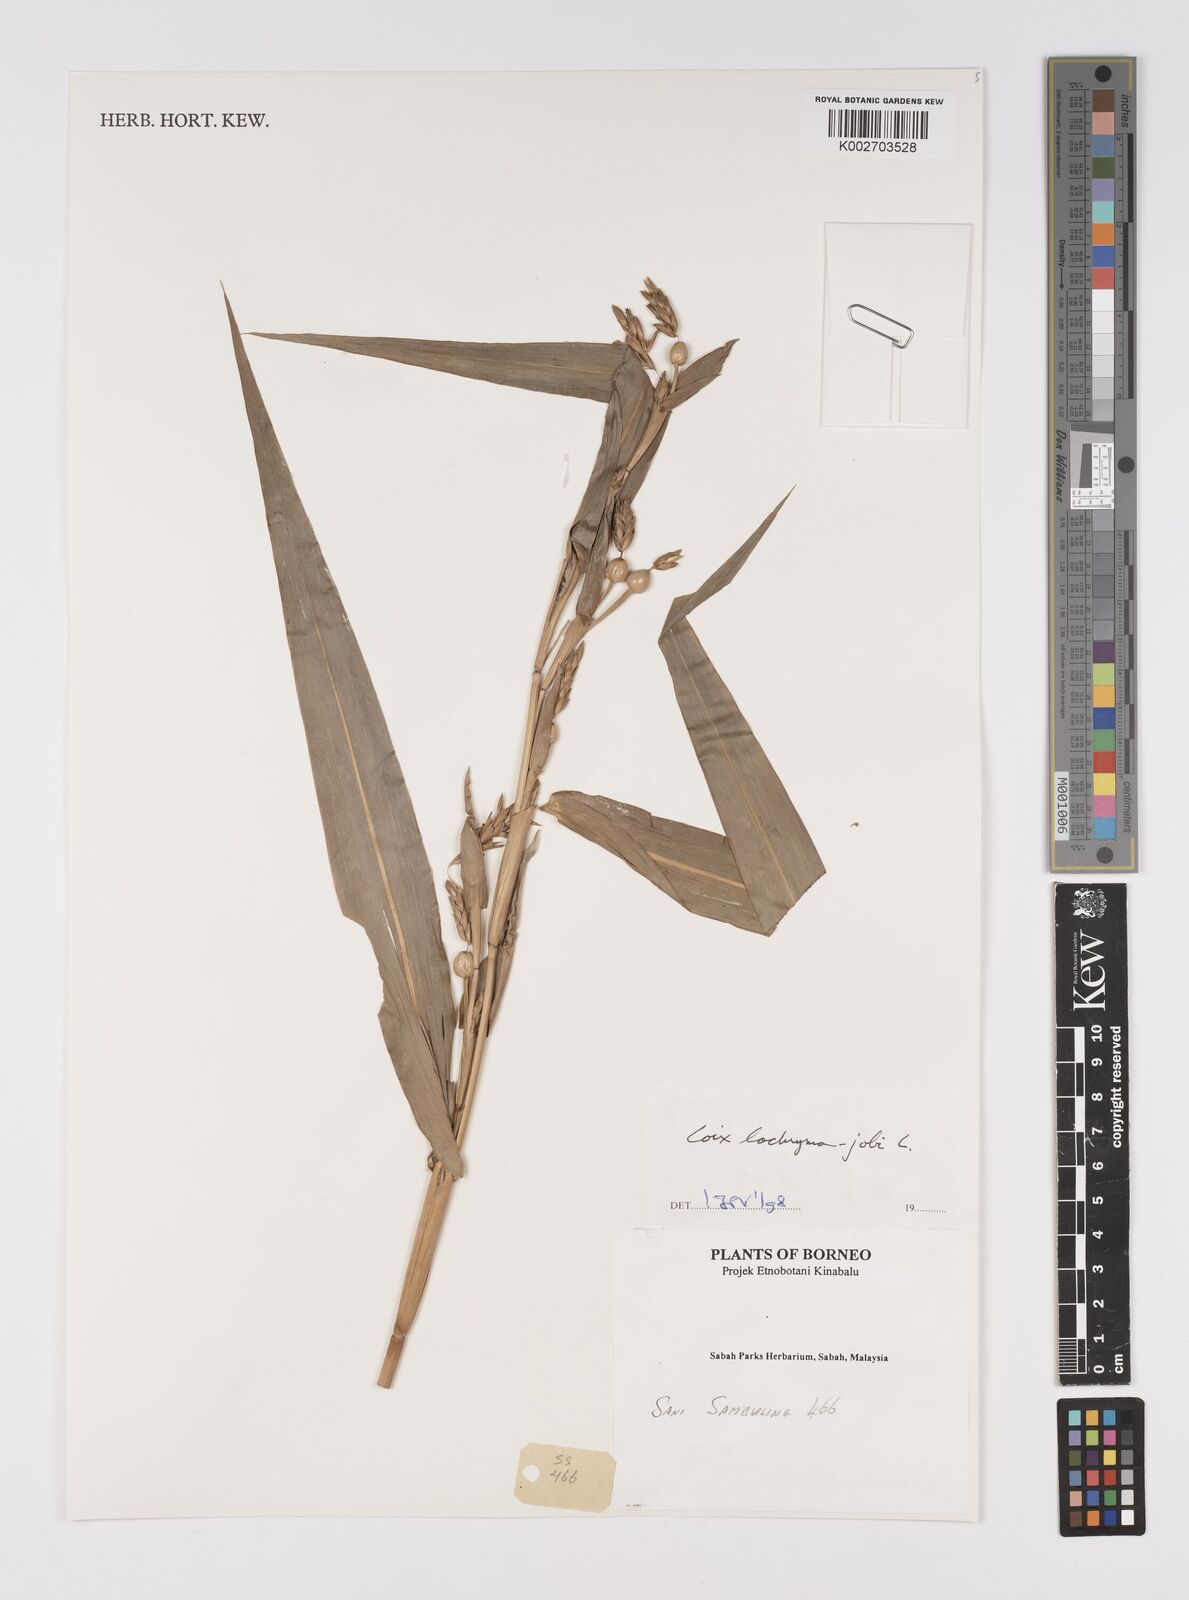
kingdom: Plantae
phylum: Tracheophyta
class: Liliopsida
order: Poales
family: Poaceae
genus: Coix
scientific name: Coix lacryma-jobi
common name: Job's tears
